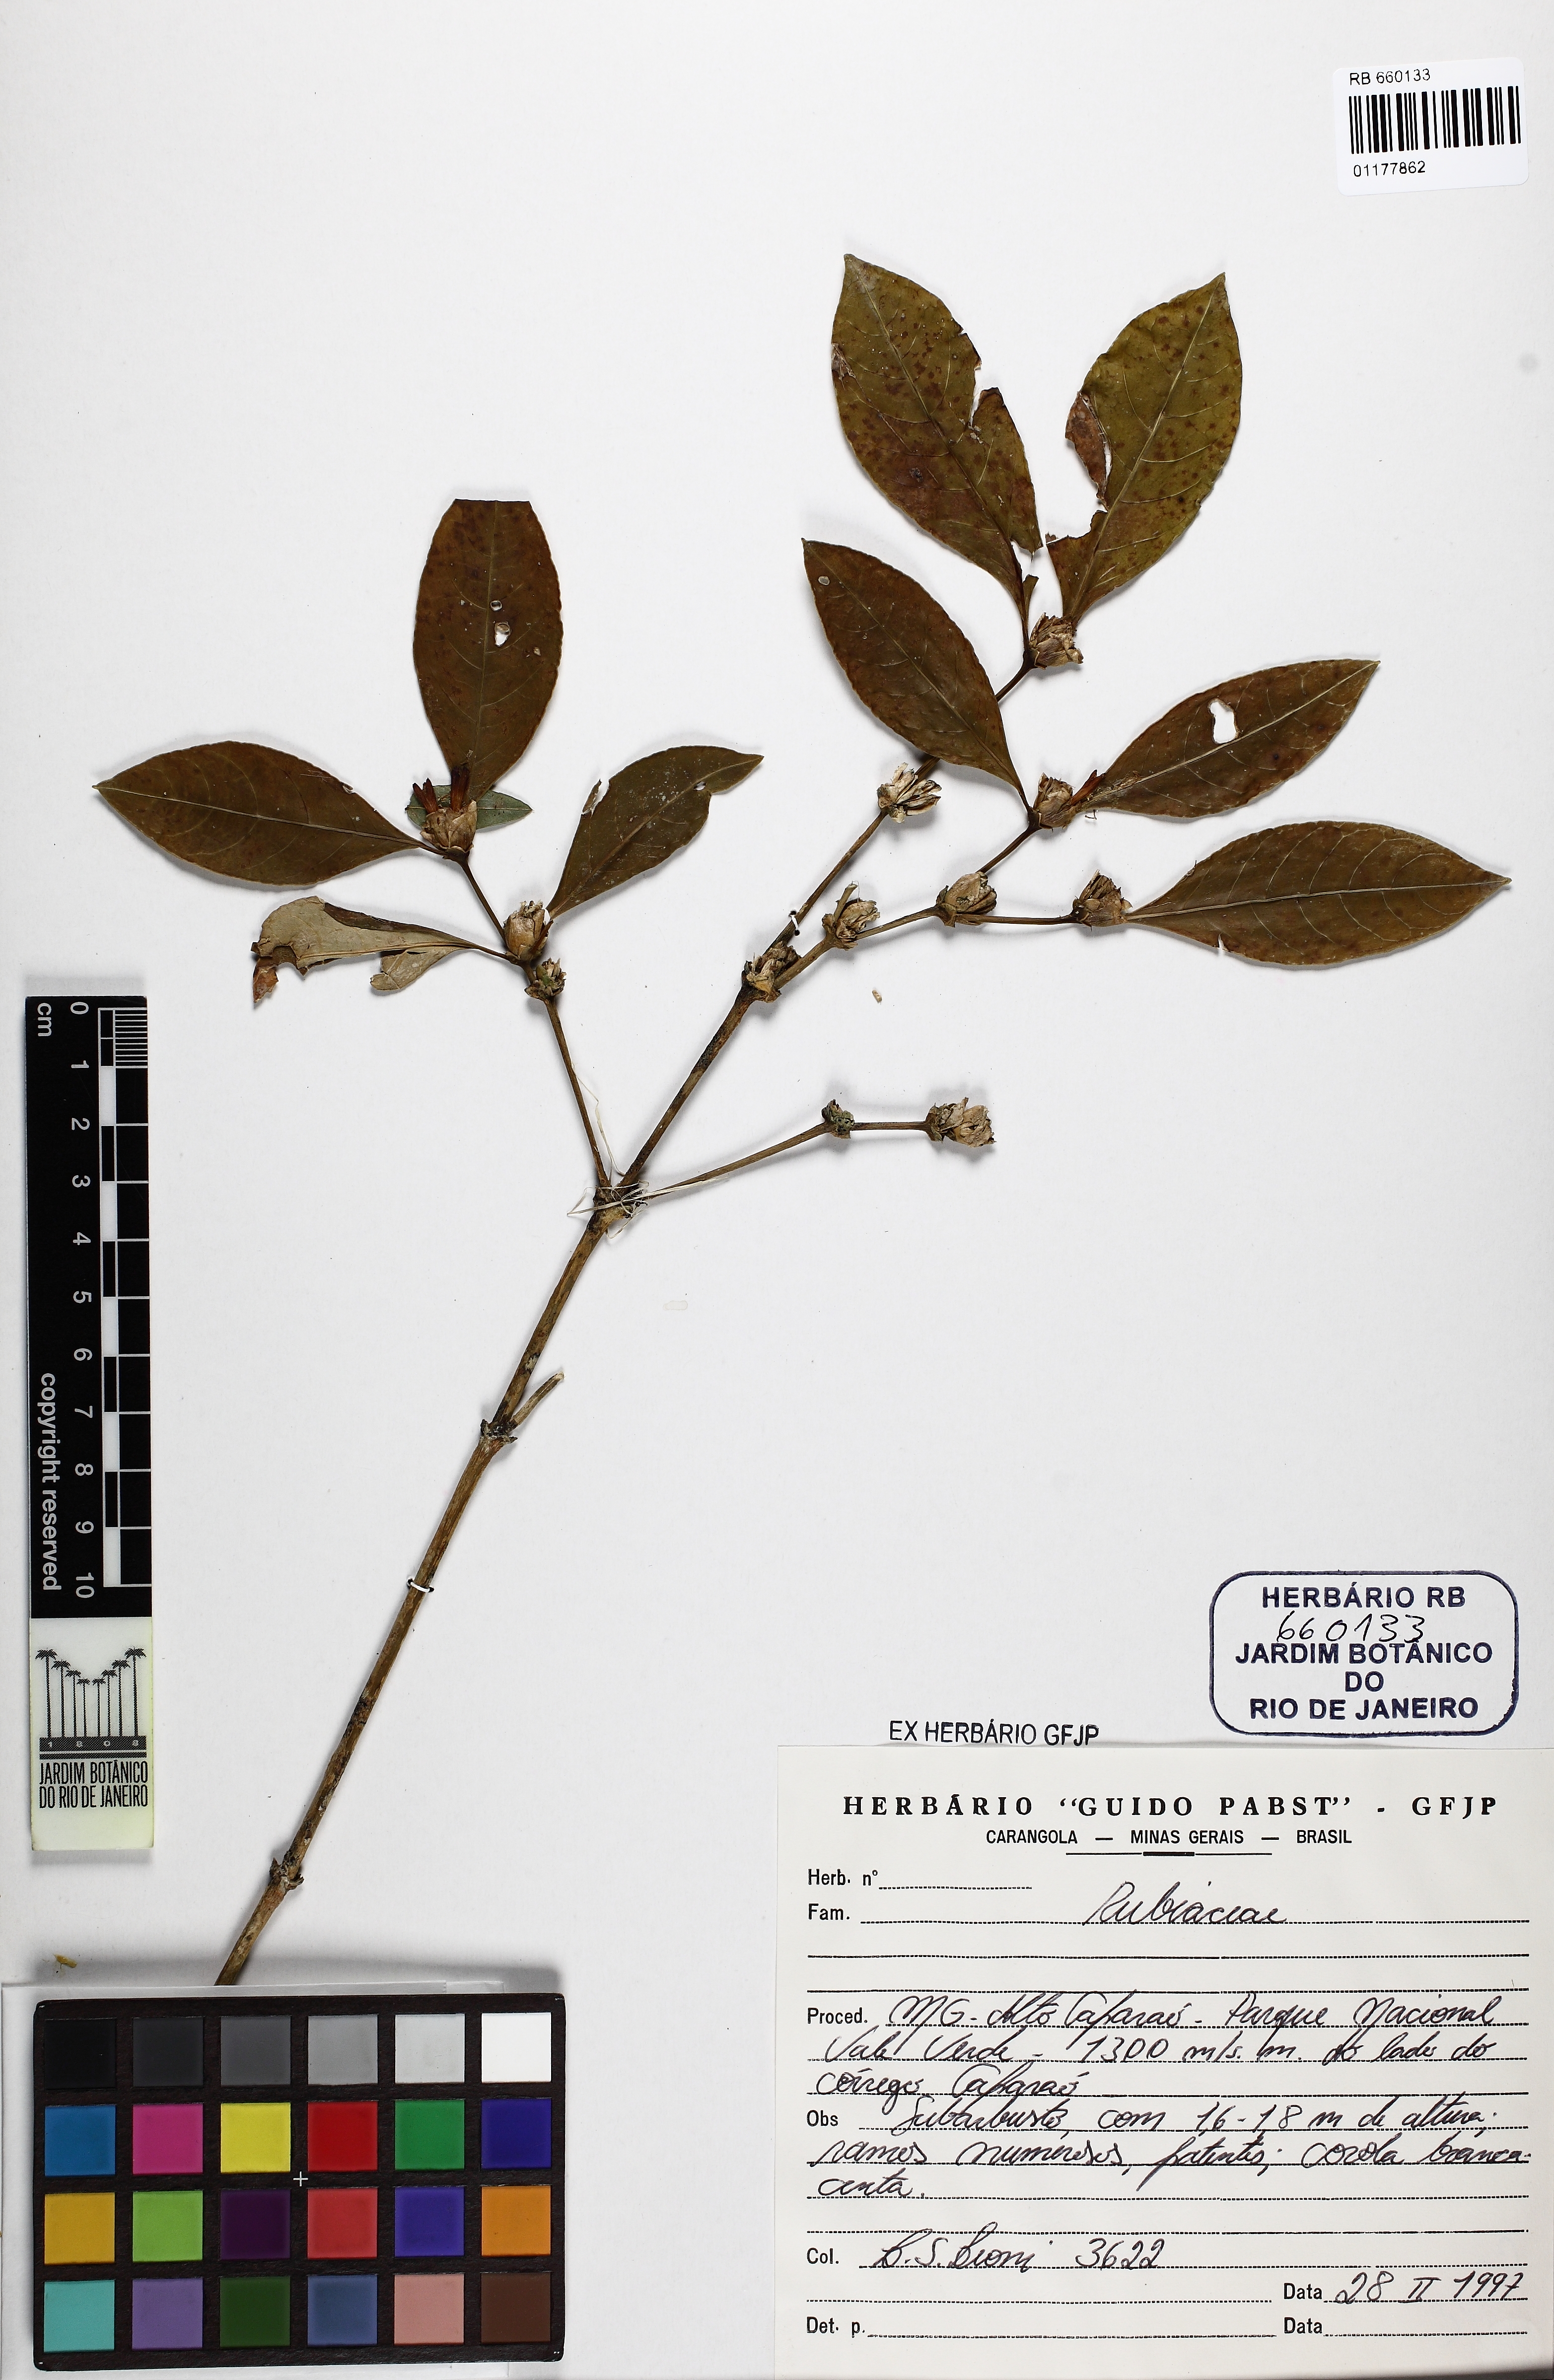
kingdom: Plantae
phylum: Tracheophyta
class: Magnoliopsida
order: Gentianales
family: Rubiaceae
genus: Psychotria
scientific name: Psychotria hastisepala
